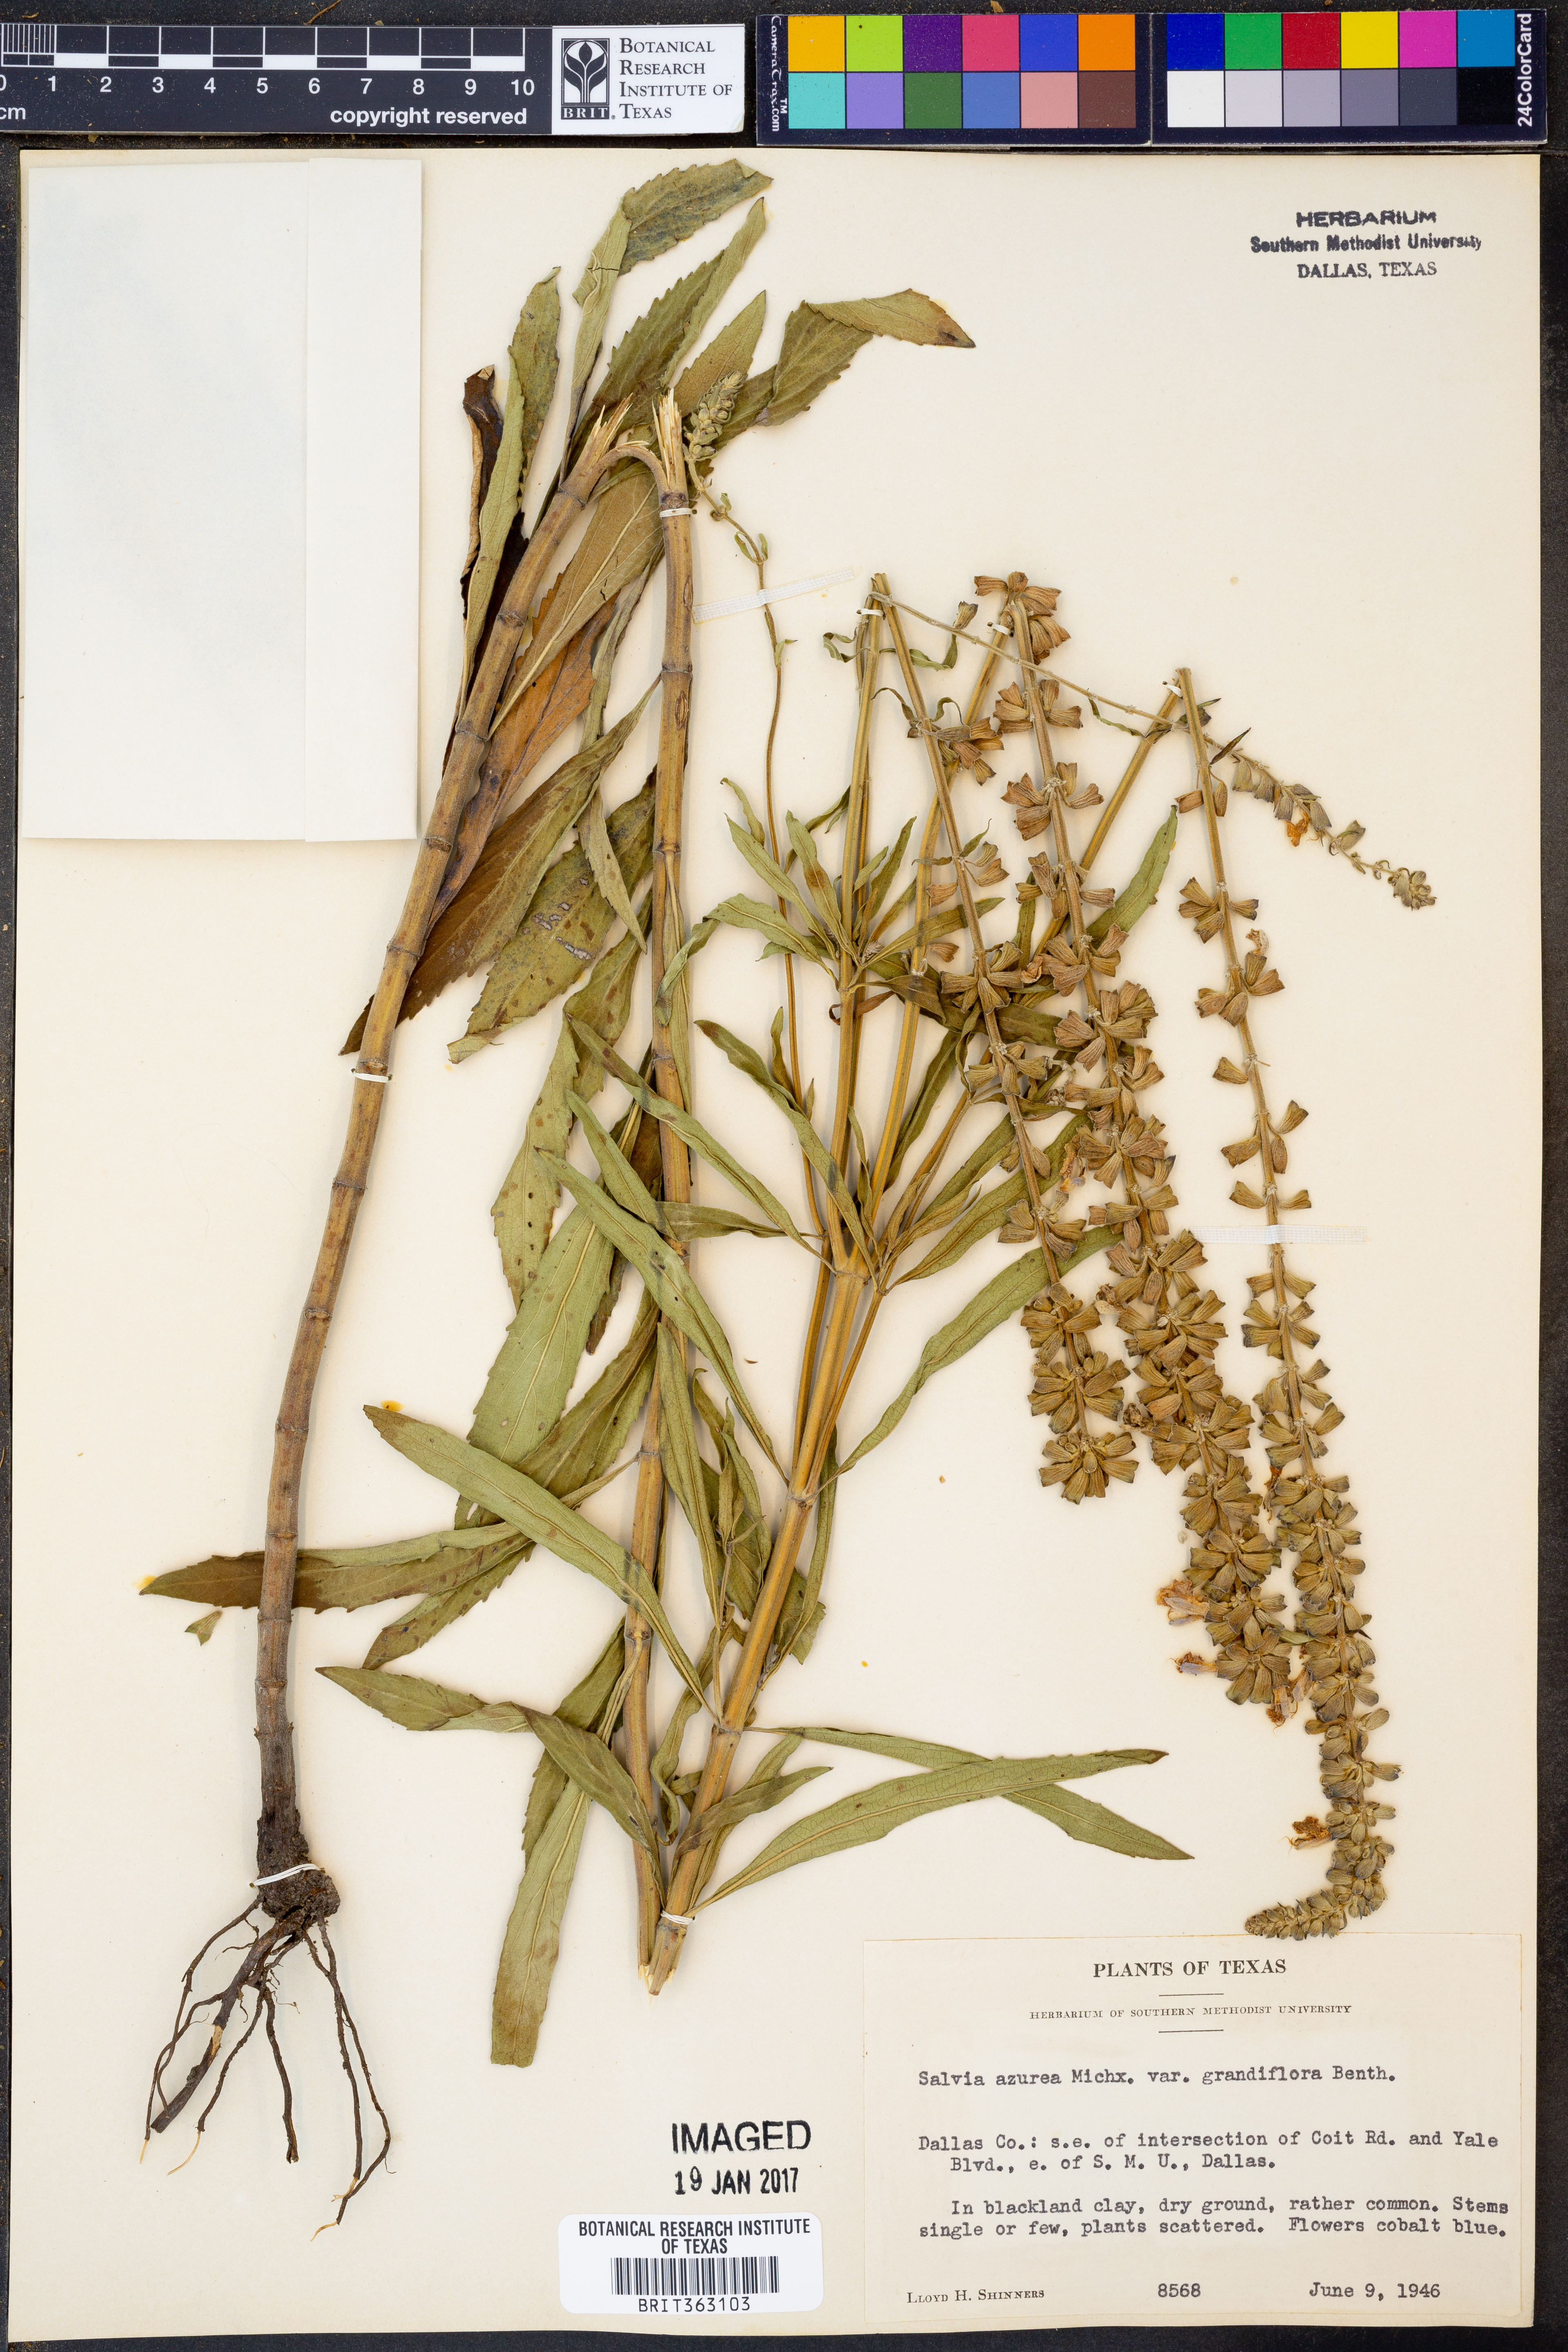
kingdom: Plantae
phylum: Tracheophyta
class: Magnoliopsida
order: Lamiales
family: Lamiaceae
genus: Salvia
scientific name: Salvia azurea
